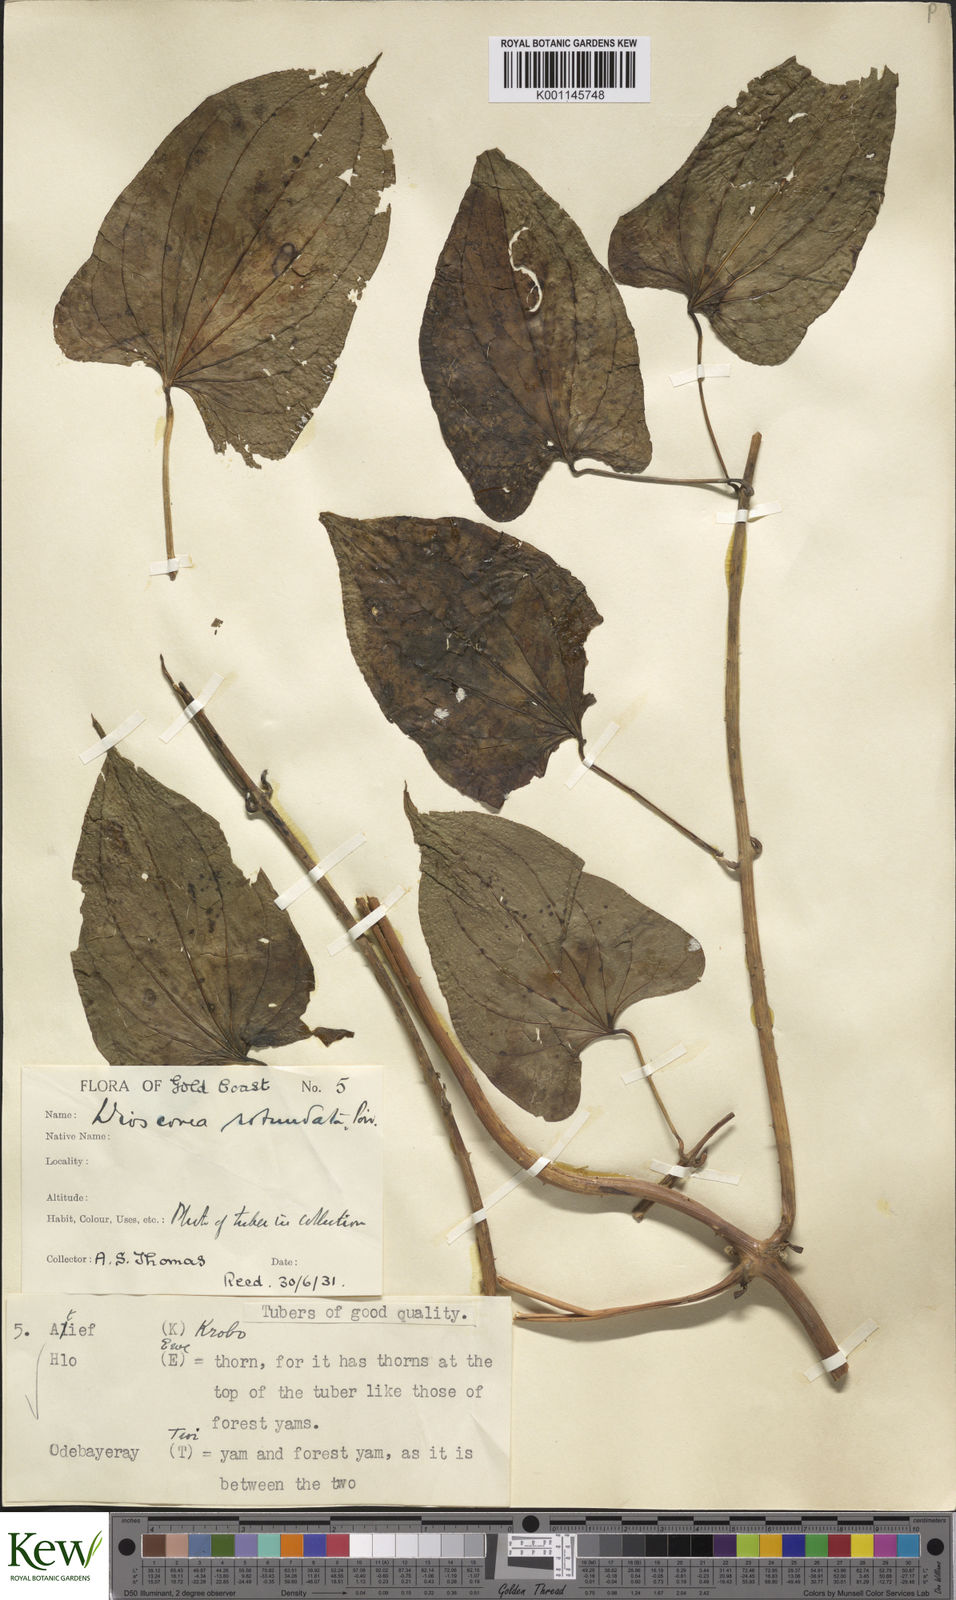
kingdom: Plantae
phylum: Tracheophyta
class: Liliopsida
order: Dioscoreales
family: Dioscoreaceae
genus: Dioscorea
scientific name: Dioscorea cayenensis
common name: Attoto yam
